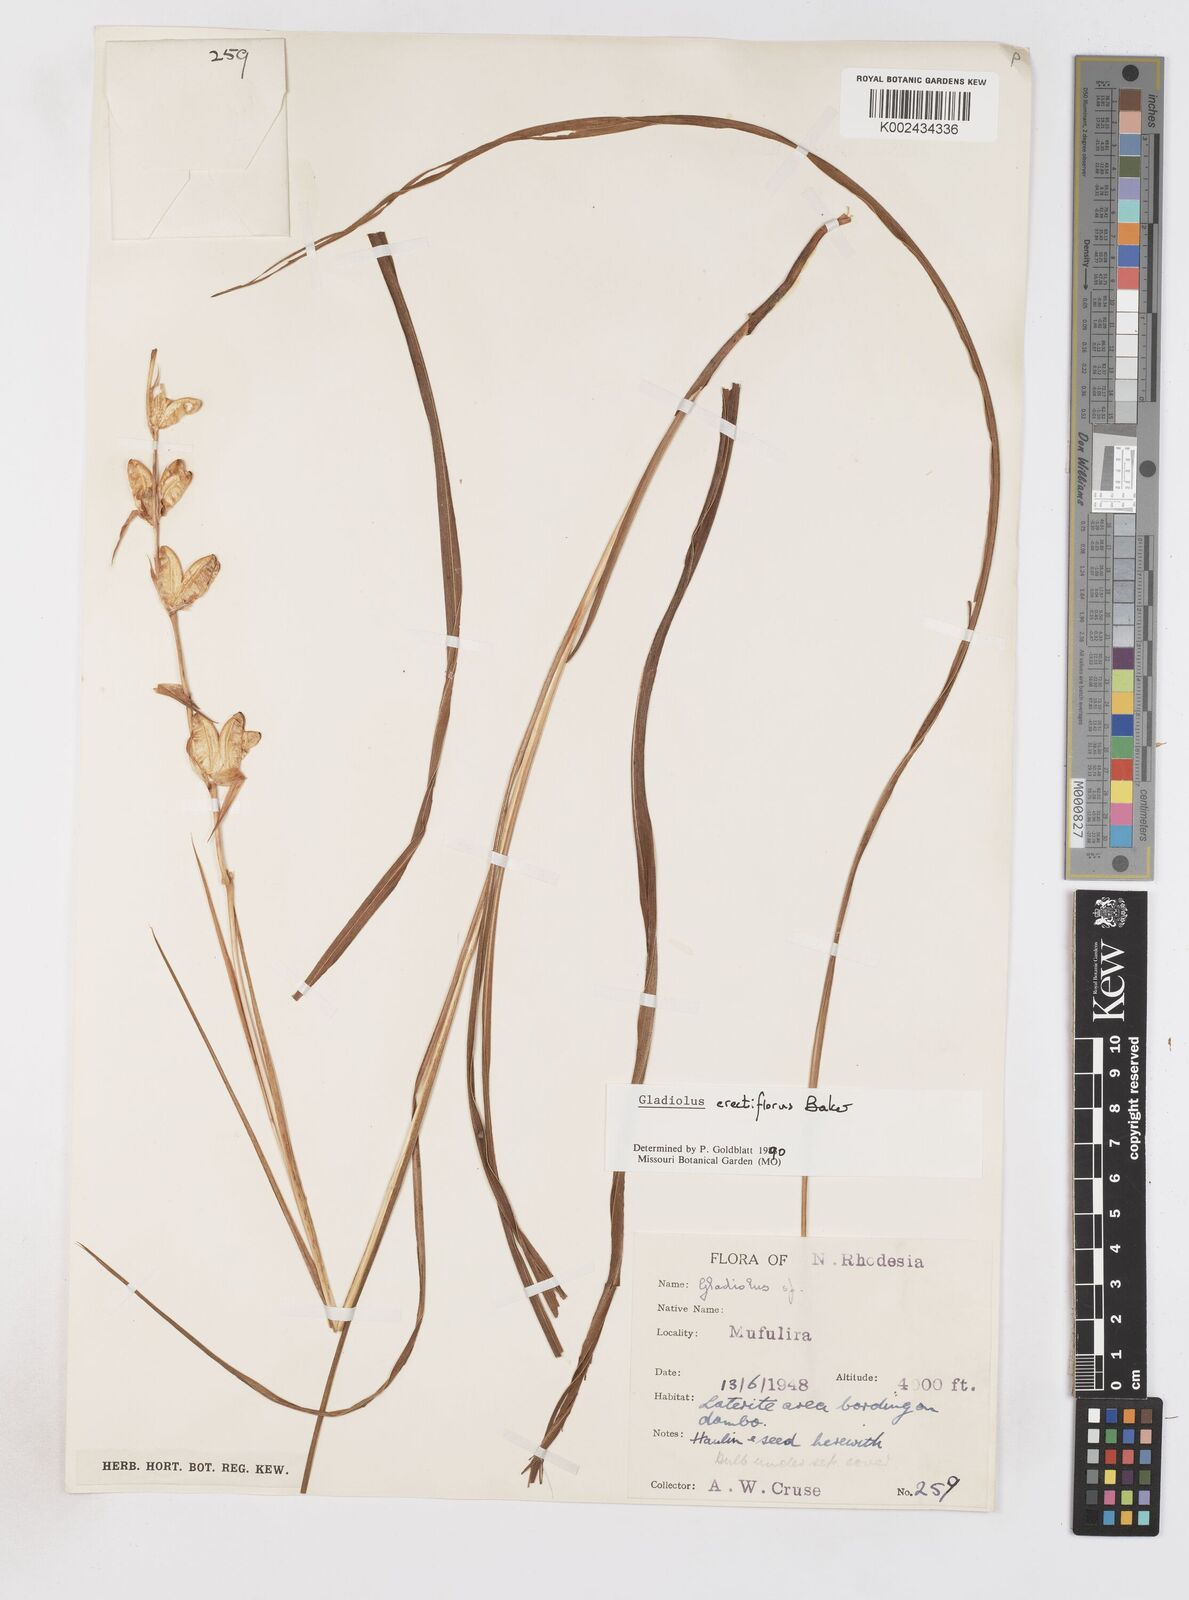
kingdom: Plantae
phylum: Tracheophyta
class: Liliopsida
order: Asparagales
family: Iridaceae
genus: Gladiolus
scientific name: Gladiolus erectiflorus
